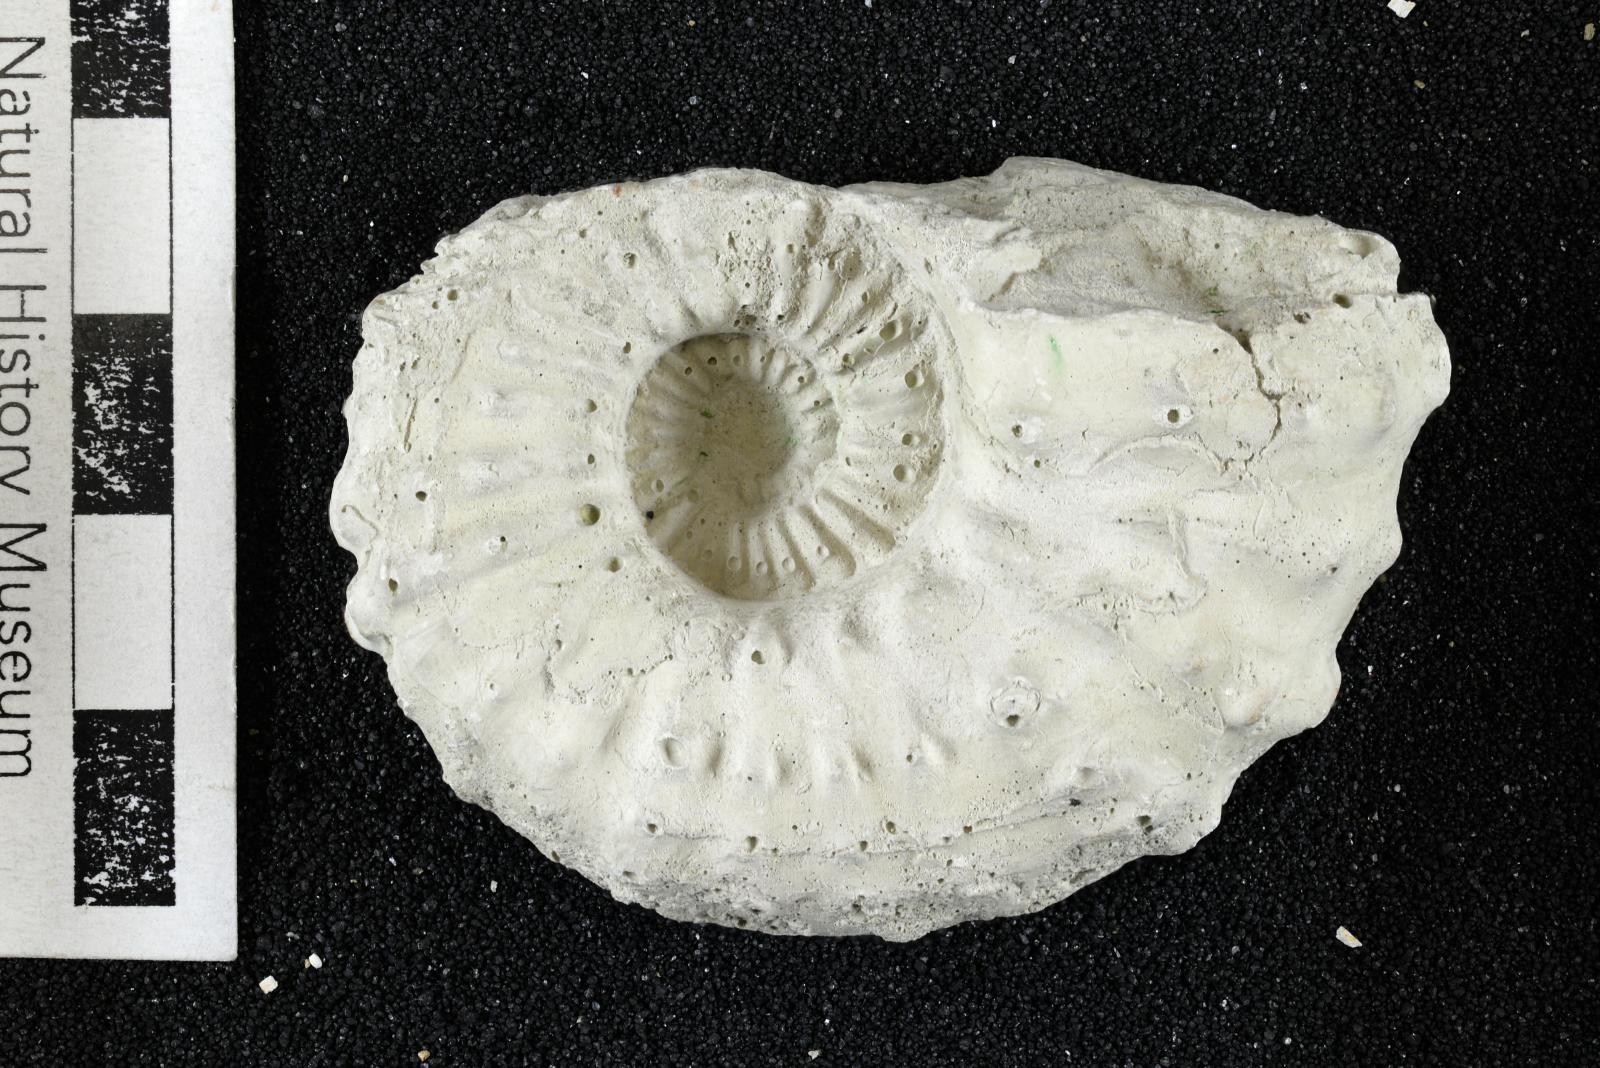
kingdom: Animalia
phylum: Mollusca
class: Cephalopoda
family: Acanthoceratidae
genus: Romaniceras
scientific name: Romaniceras
